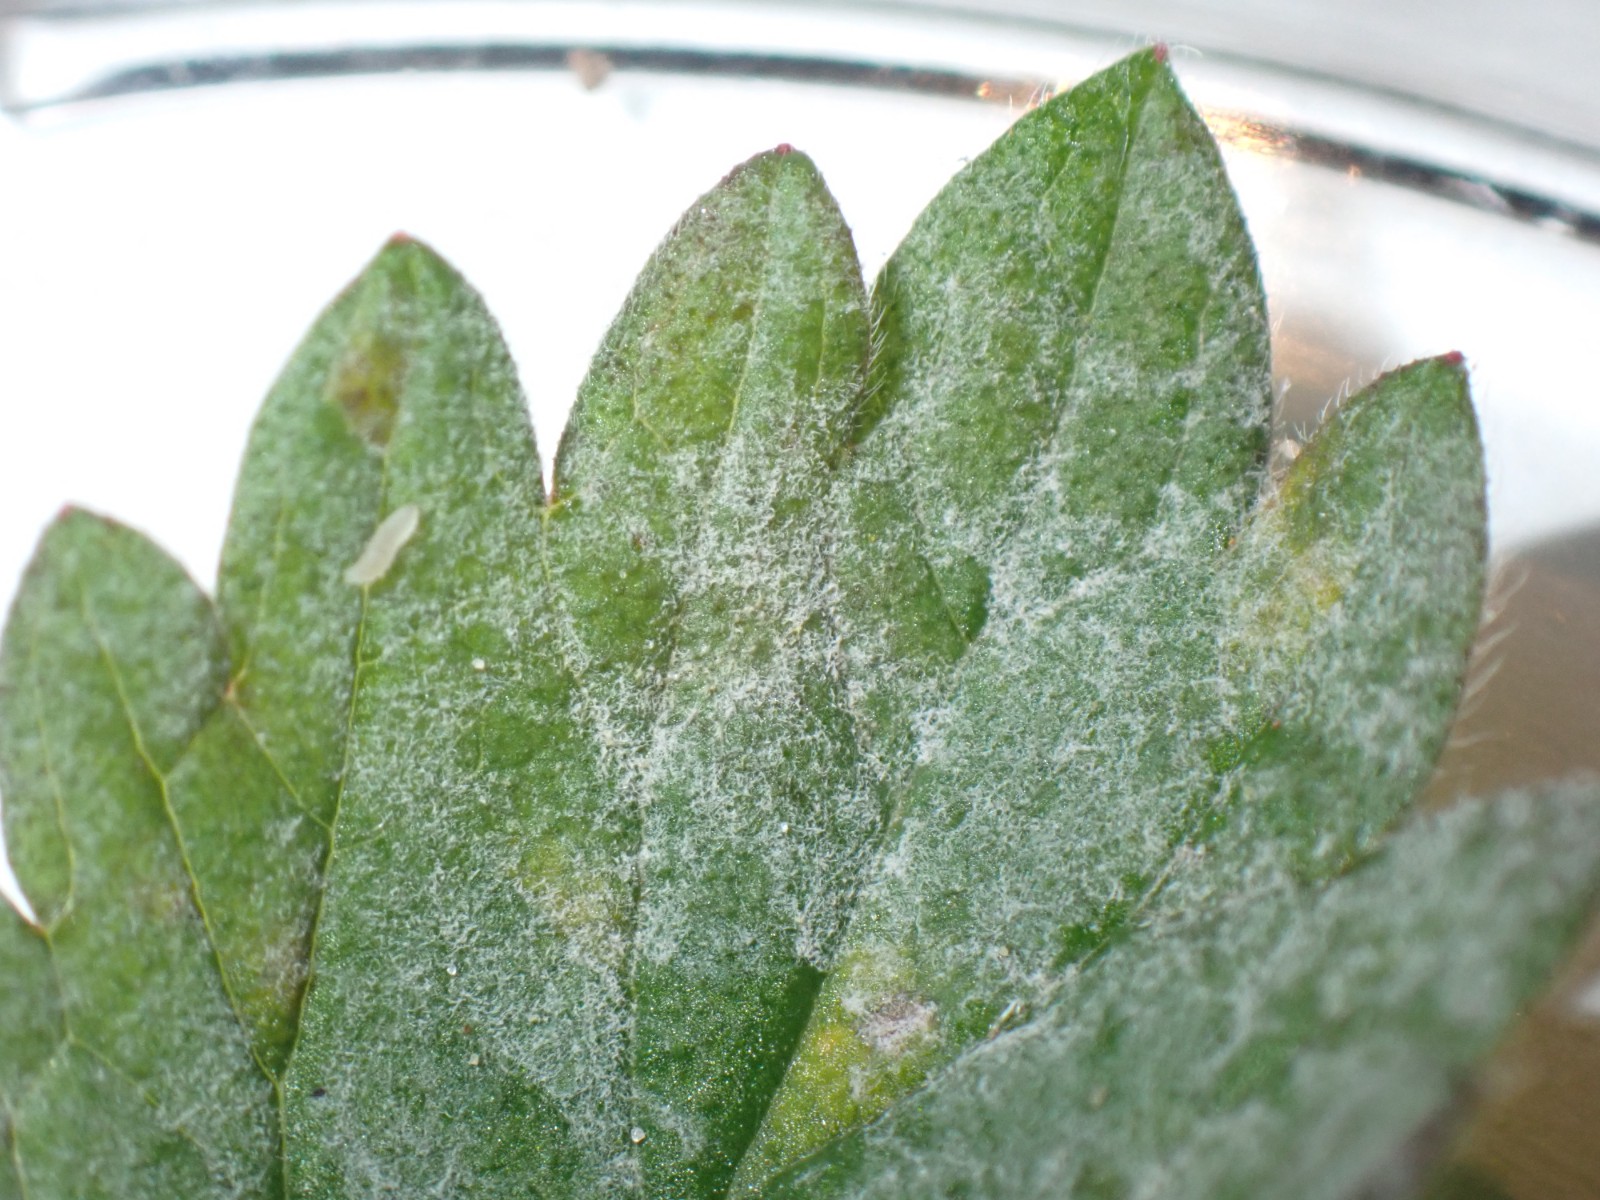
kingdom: Fungi
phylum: Ascomycota
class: Leotiomycetes
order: Helotiales
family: Erysiphaceae
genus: Podosphaera
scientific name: Podosphaera aphanis
